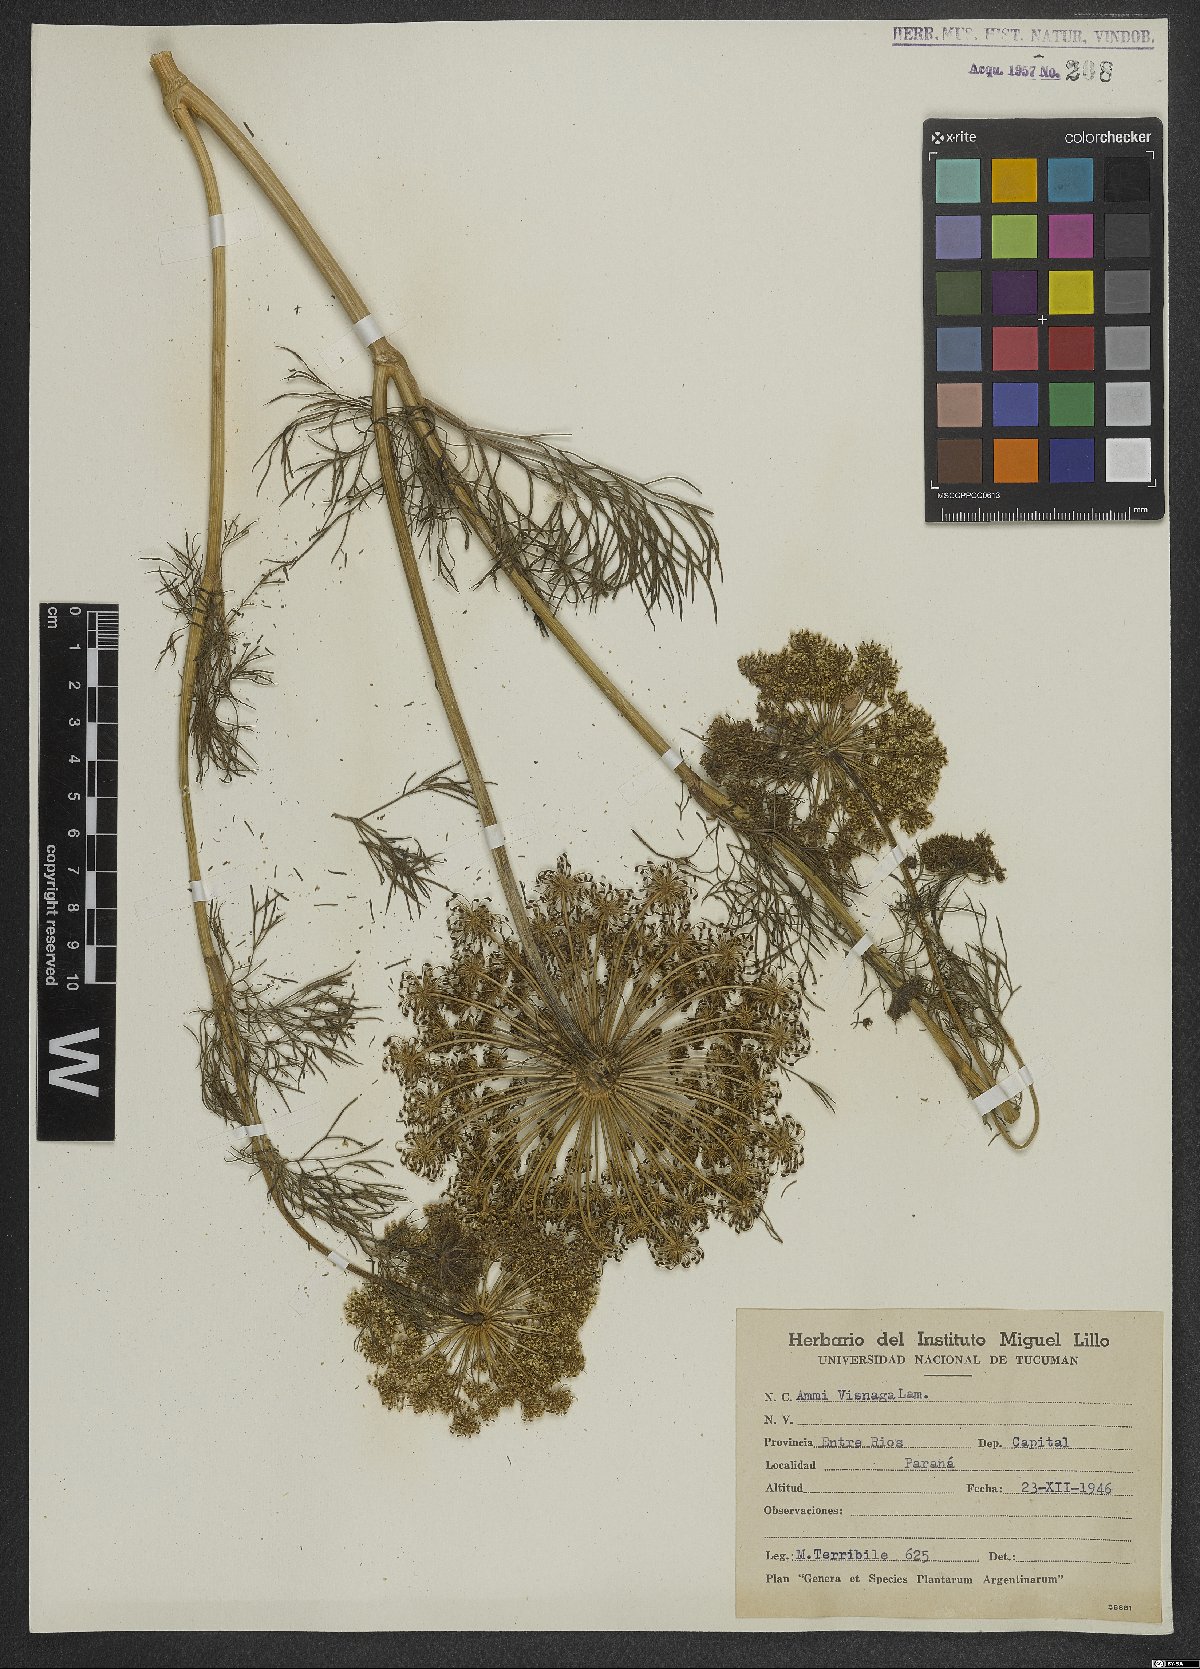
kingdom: Plantae
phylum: Tracheophyta
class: Magnoliopsida
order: Apiales
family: Apiaceae
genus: Visnaga
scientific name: Visnaga daucoides
